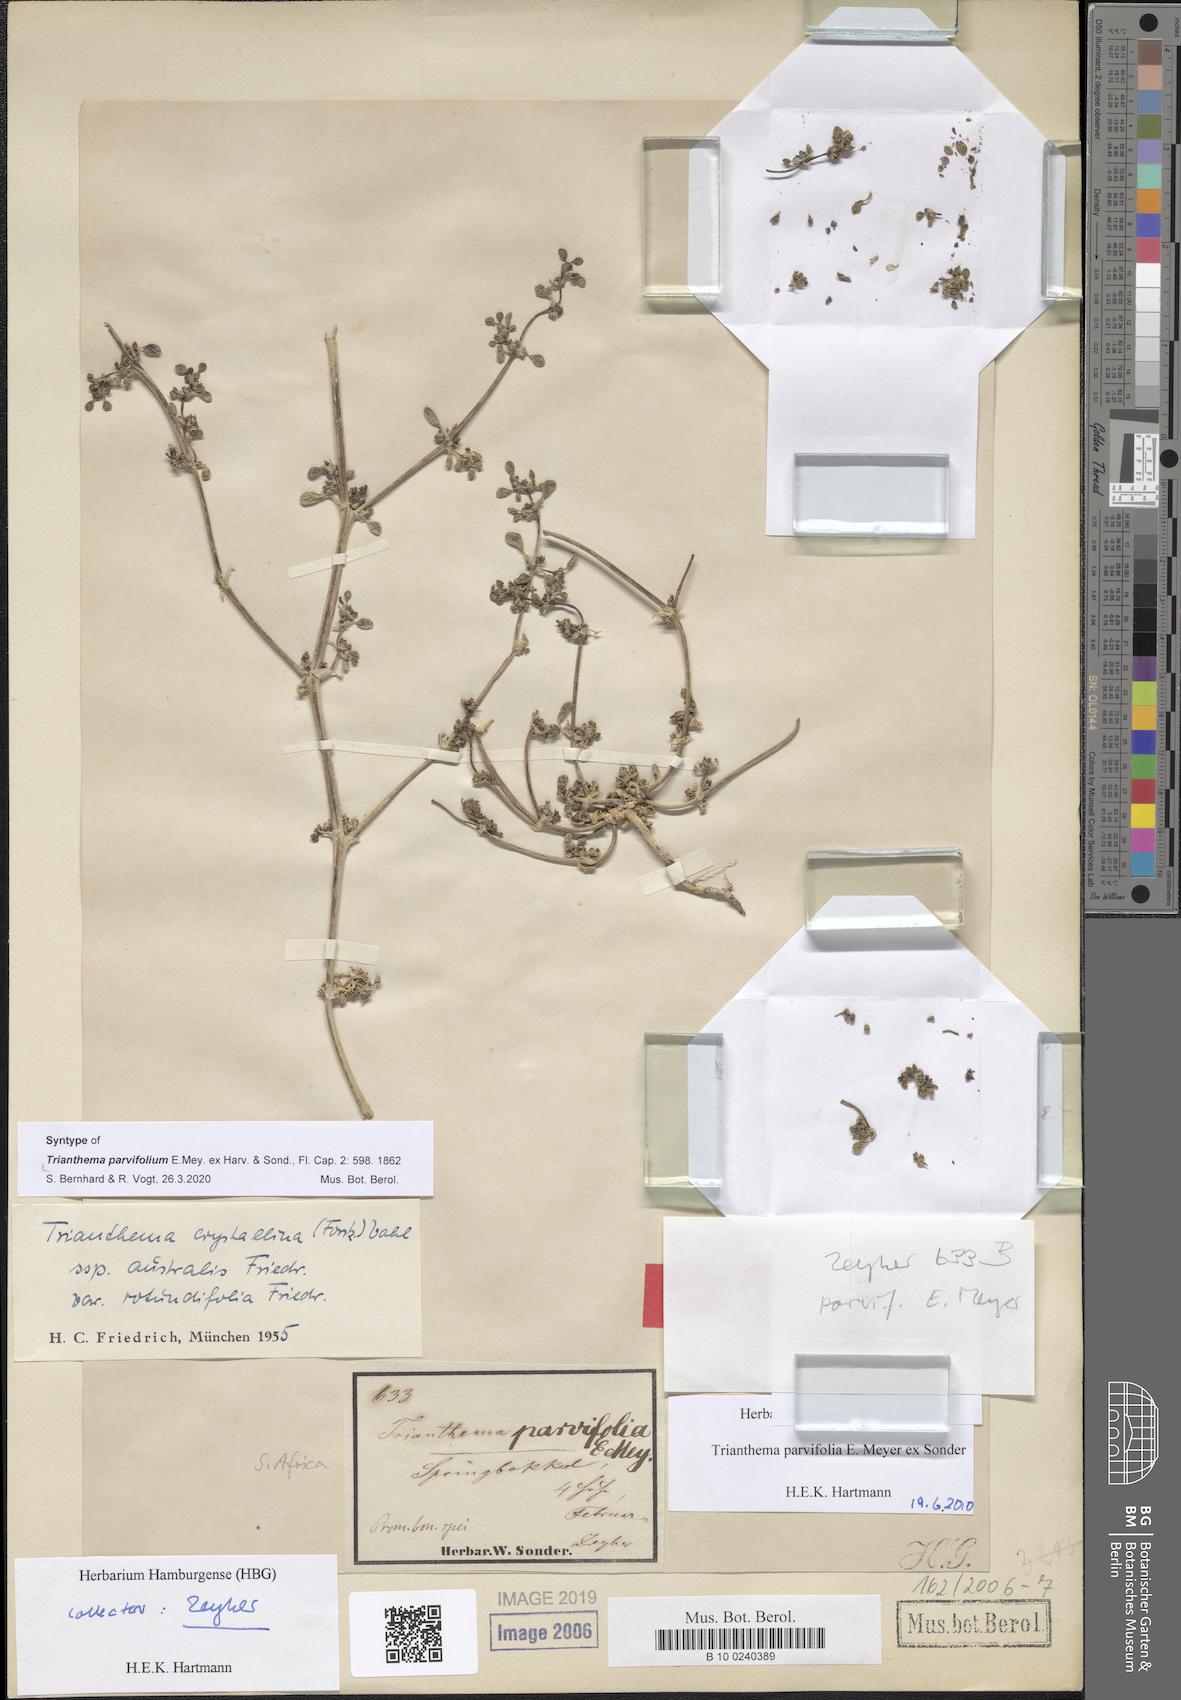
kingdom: Plantae
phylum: Tracheophyta
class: Magnoliopsida
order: Caryophyllales
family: Aizoaceae
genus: Trianthema
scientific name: Trianthema parvifolium
